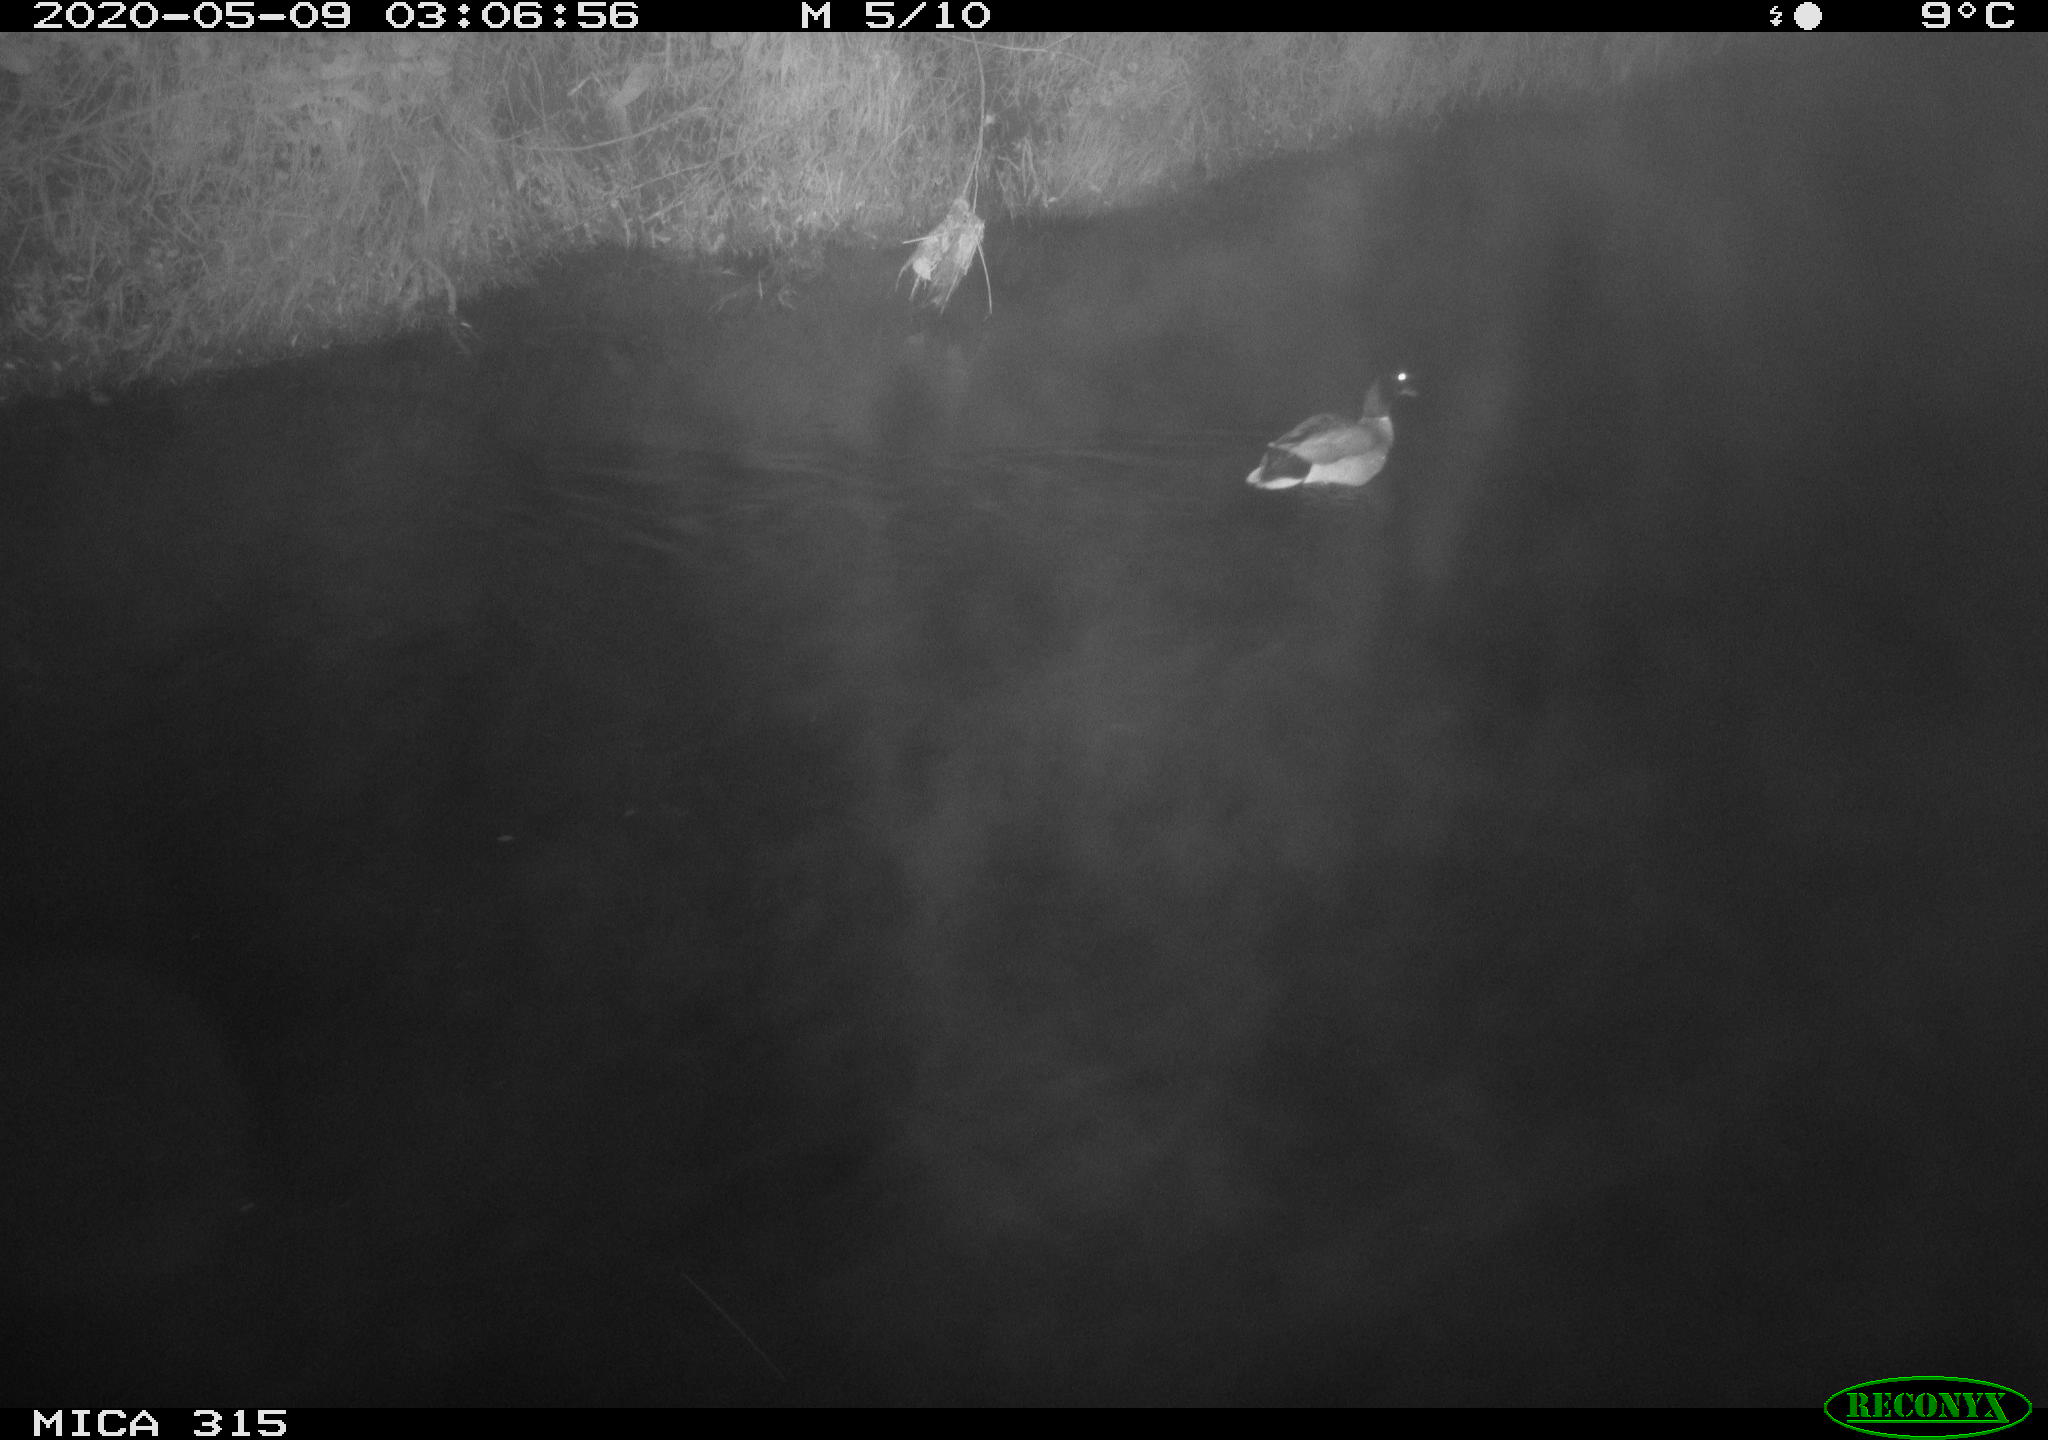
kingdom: Animalia
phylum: Chordata
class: Aves
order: Anseriformes
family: Anatidae
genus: Anas
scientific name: Anas platyrhynchos
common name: Mallard
